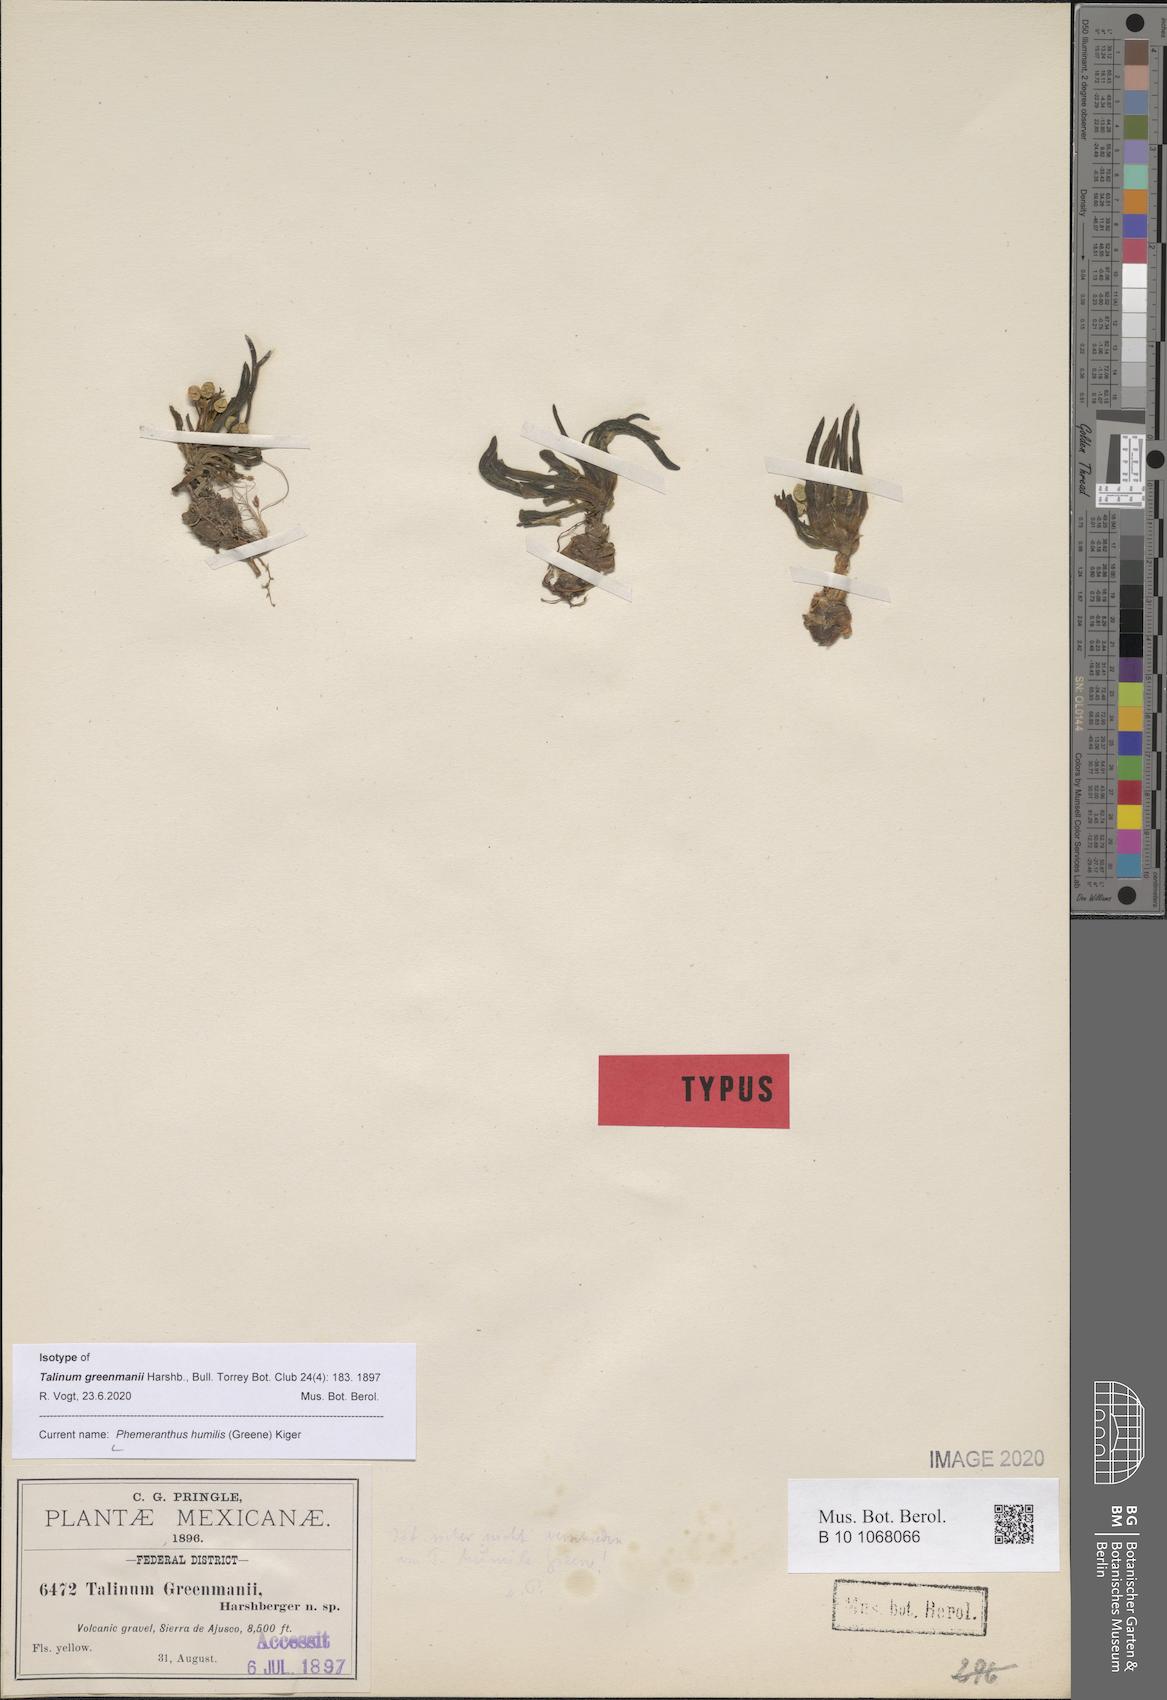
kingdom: Plantae
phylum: Tracheophyta
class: Magnoliopsida
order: Caryophyllales
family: Montiaceae
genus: Phemeranthus
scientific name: Phemeranthus humilis
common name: Pinos altos fameflower
